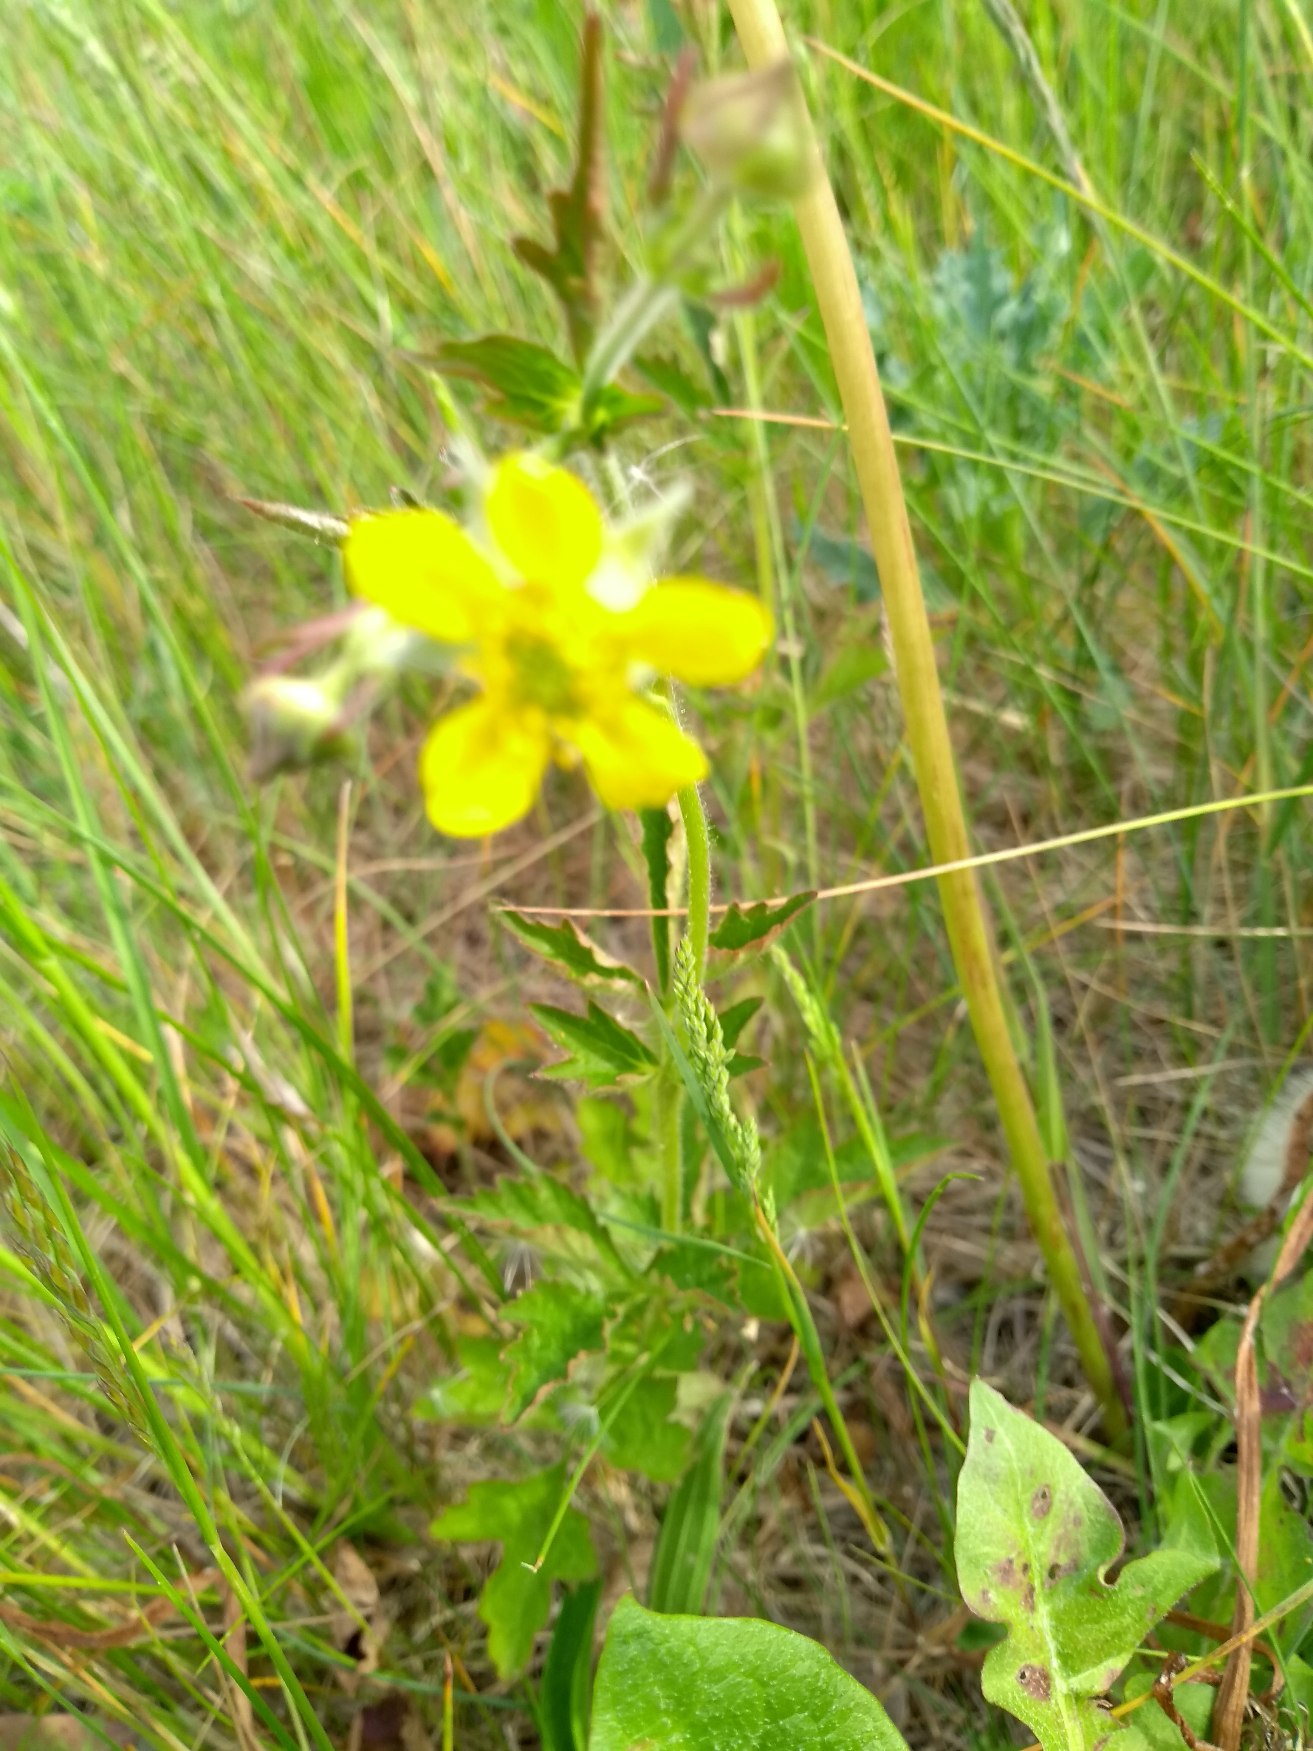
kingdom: Plantae
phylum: Tracheophyta
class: Magnoliopsida
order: Rosales
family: Rosaceae
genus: Geum
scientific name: Geum urbanum
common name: Feber-nellikerod
